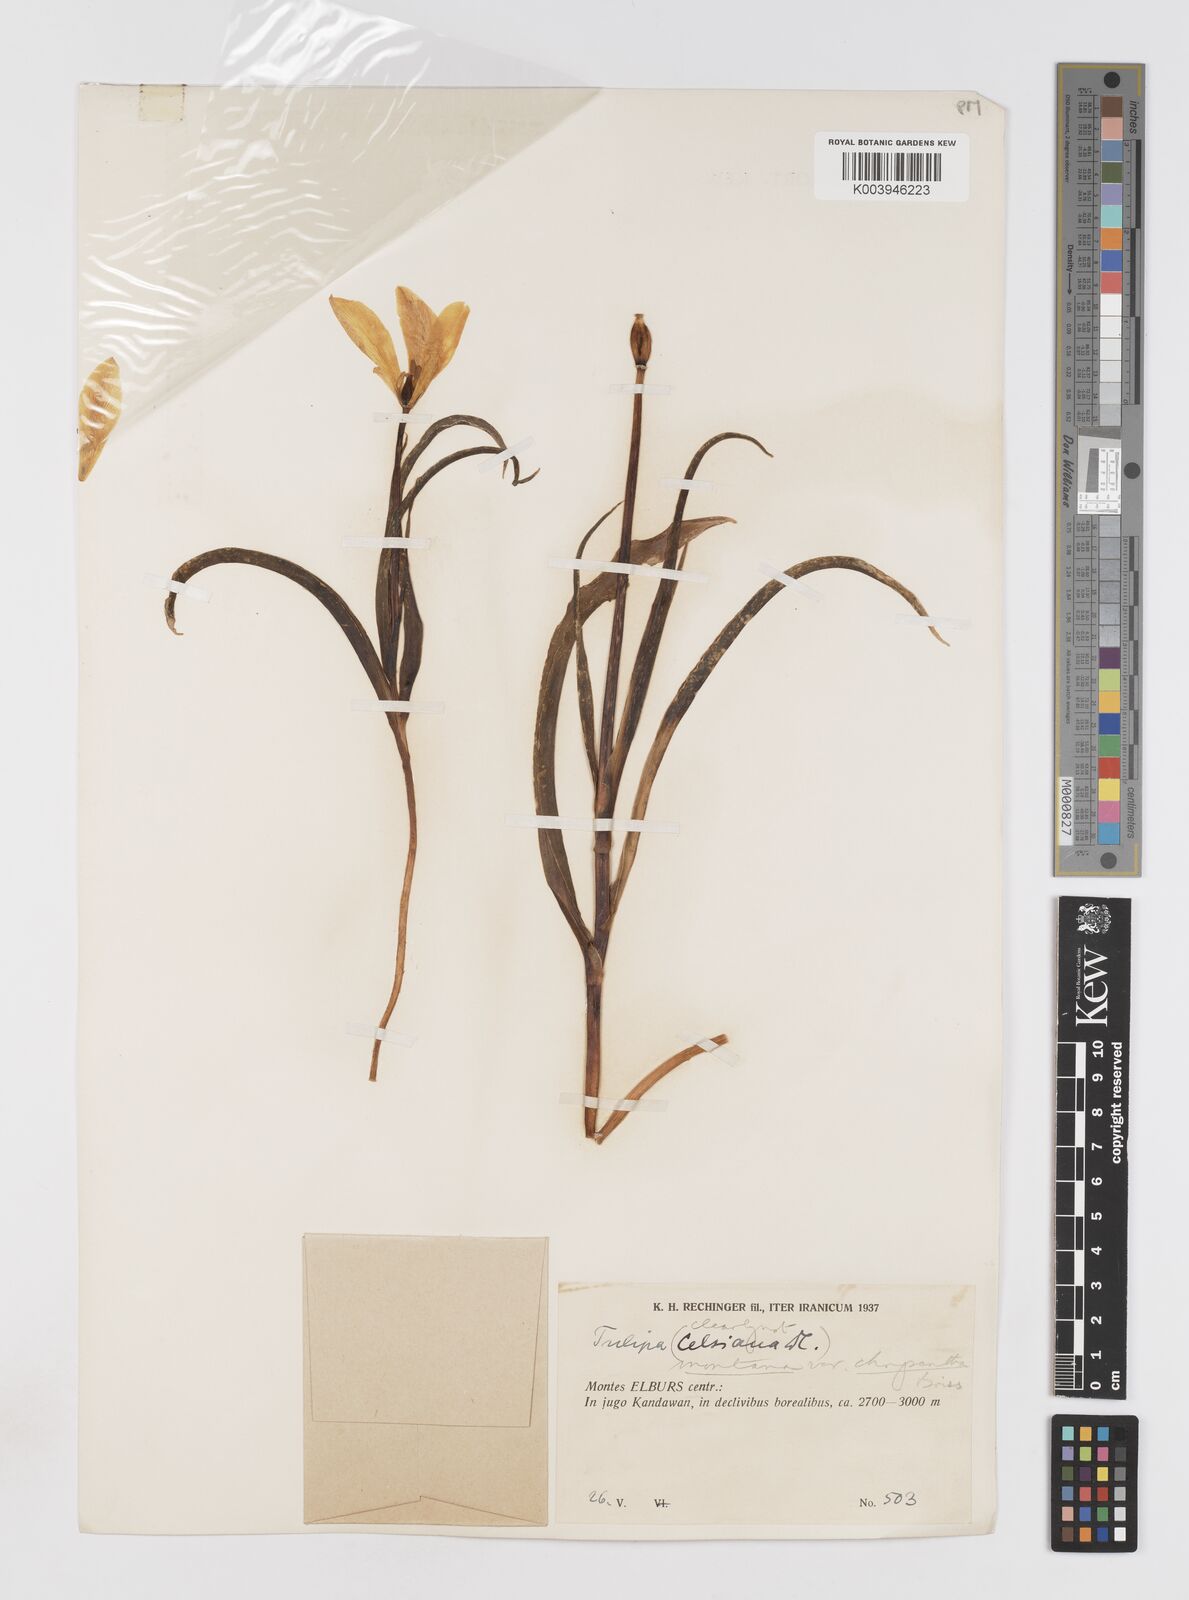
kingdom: Plantae
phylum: Tracheophyta
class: Liliopsida
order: Liliales
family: Liliaceae
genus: Tulipa
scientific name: Tulipa montana
